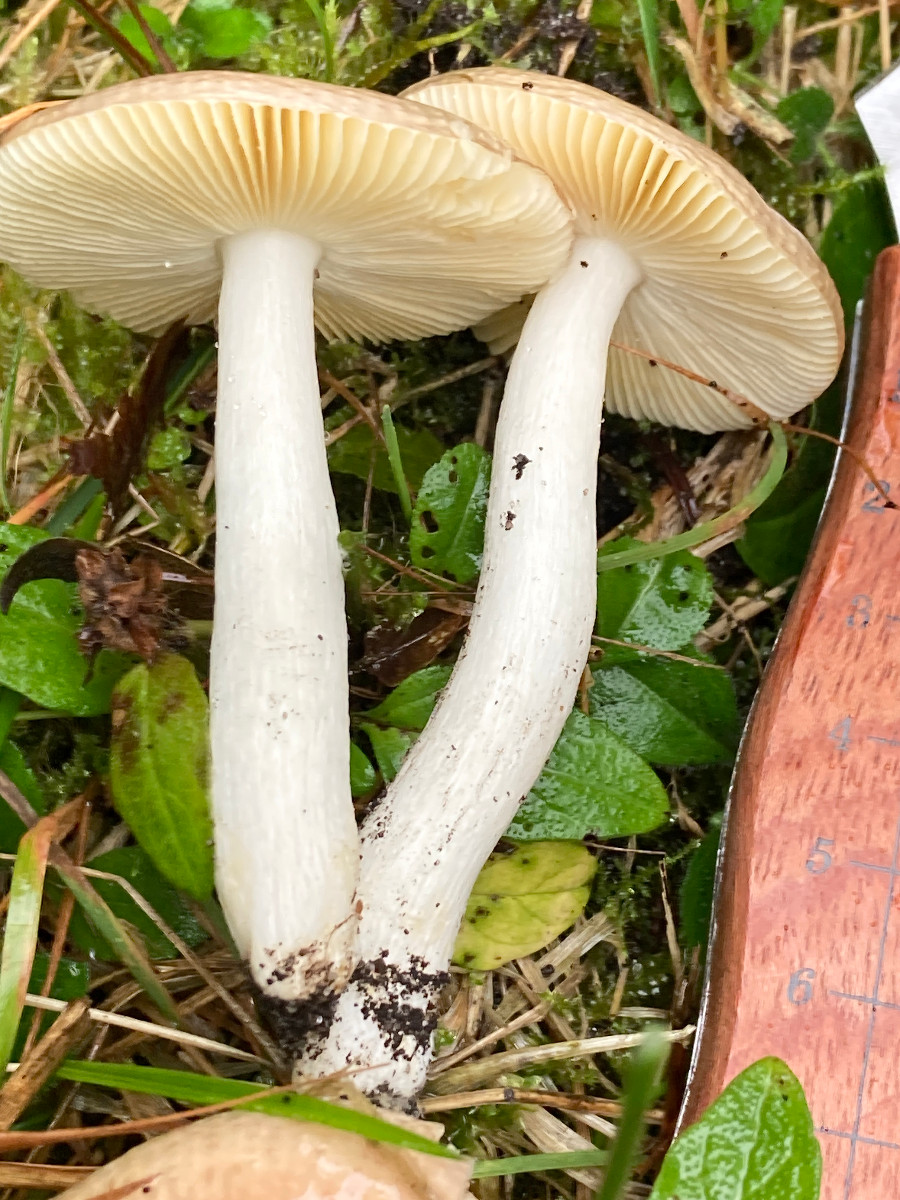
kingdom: Fungi
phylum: Basidiomycota
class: Agaricomycetes
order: Russulales
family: Russulaceae
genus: Russula
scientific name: Russula nauseosa
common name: spinkel skørhat
